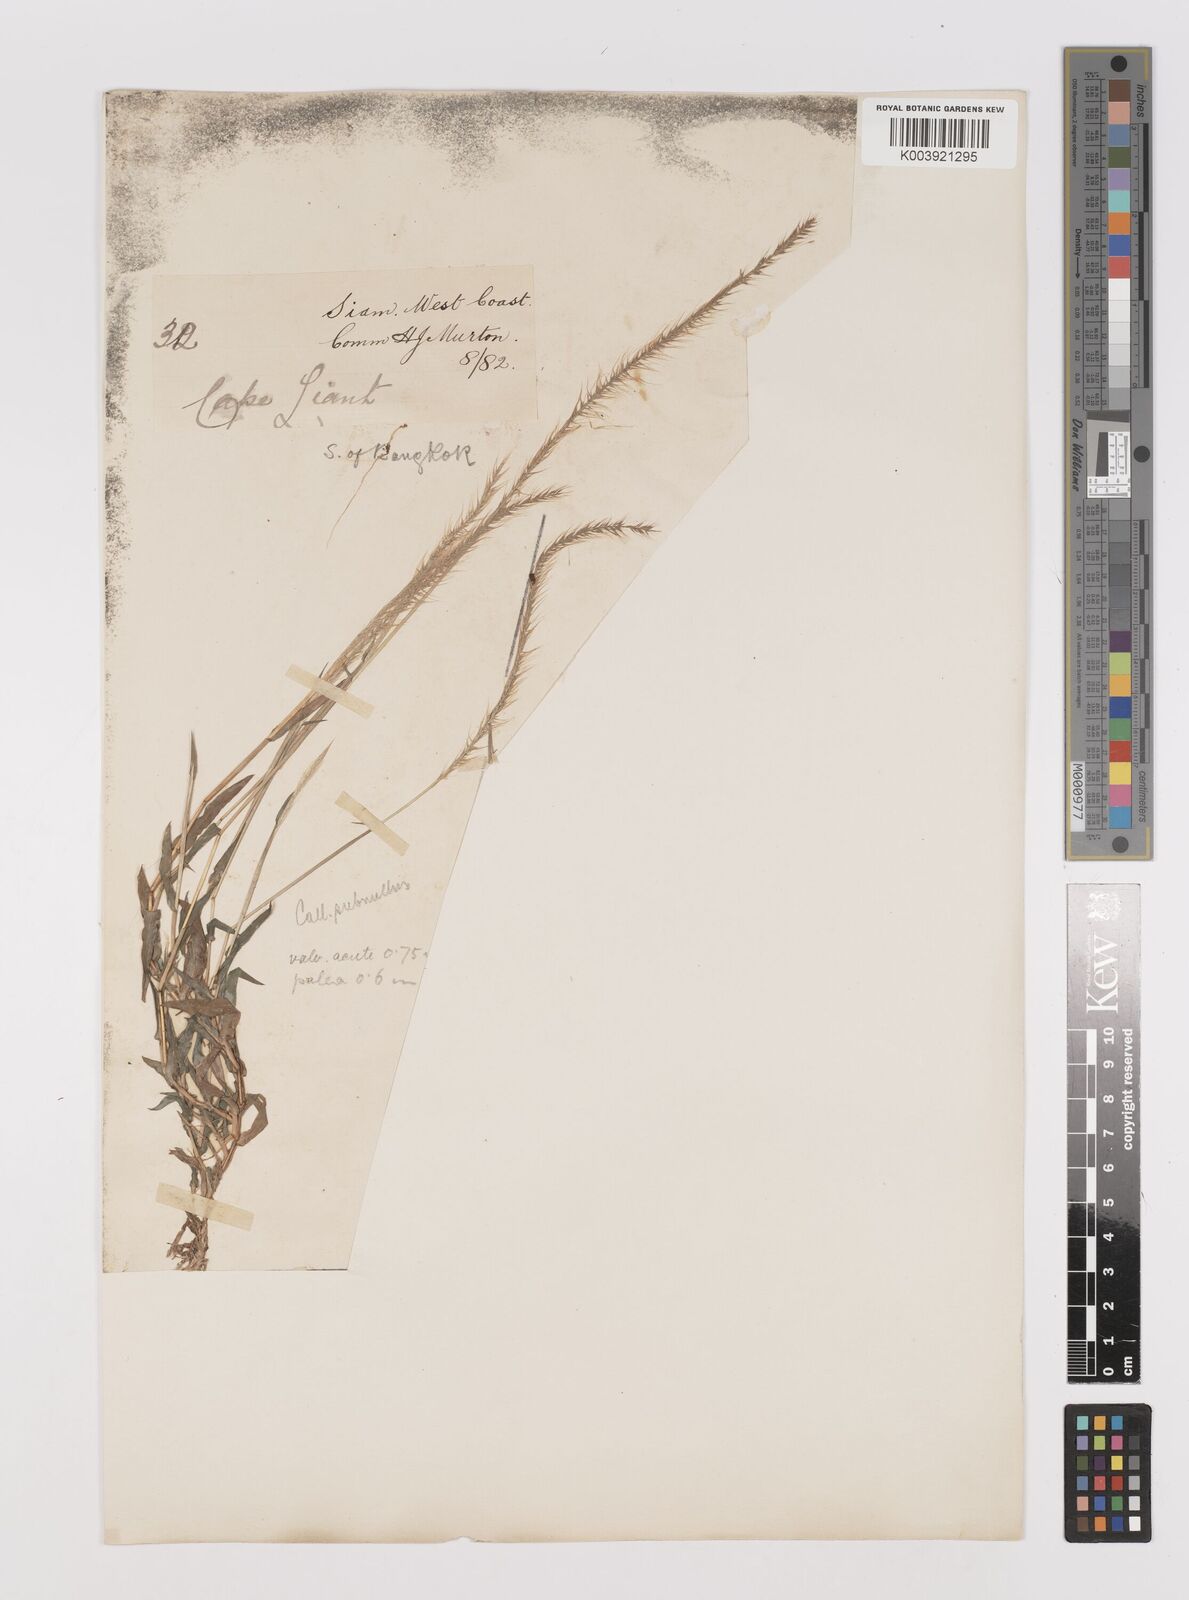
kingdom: Plantae
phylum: Tracheophyta
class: Liliopsida
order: Poales
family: Poaceae
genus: Perotis
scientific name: Perotis indica
